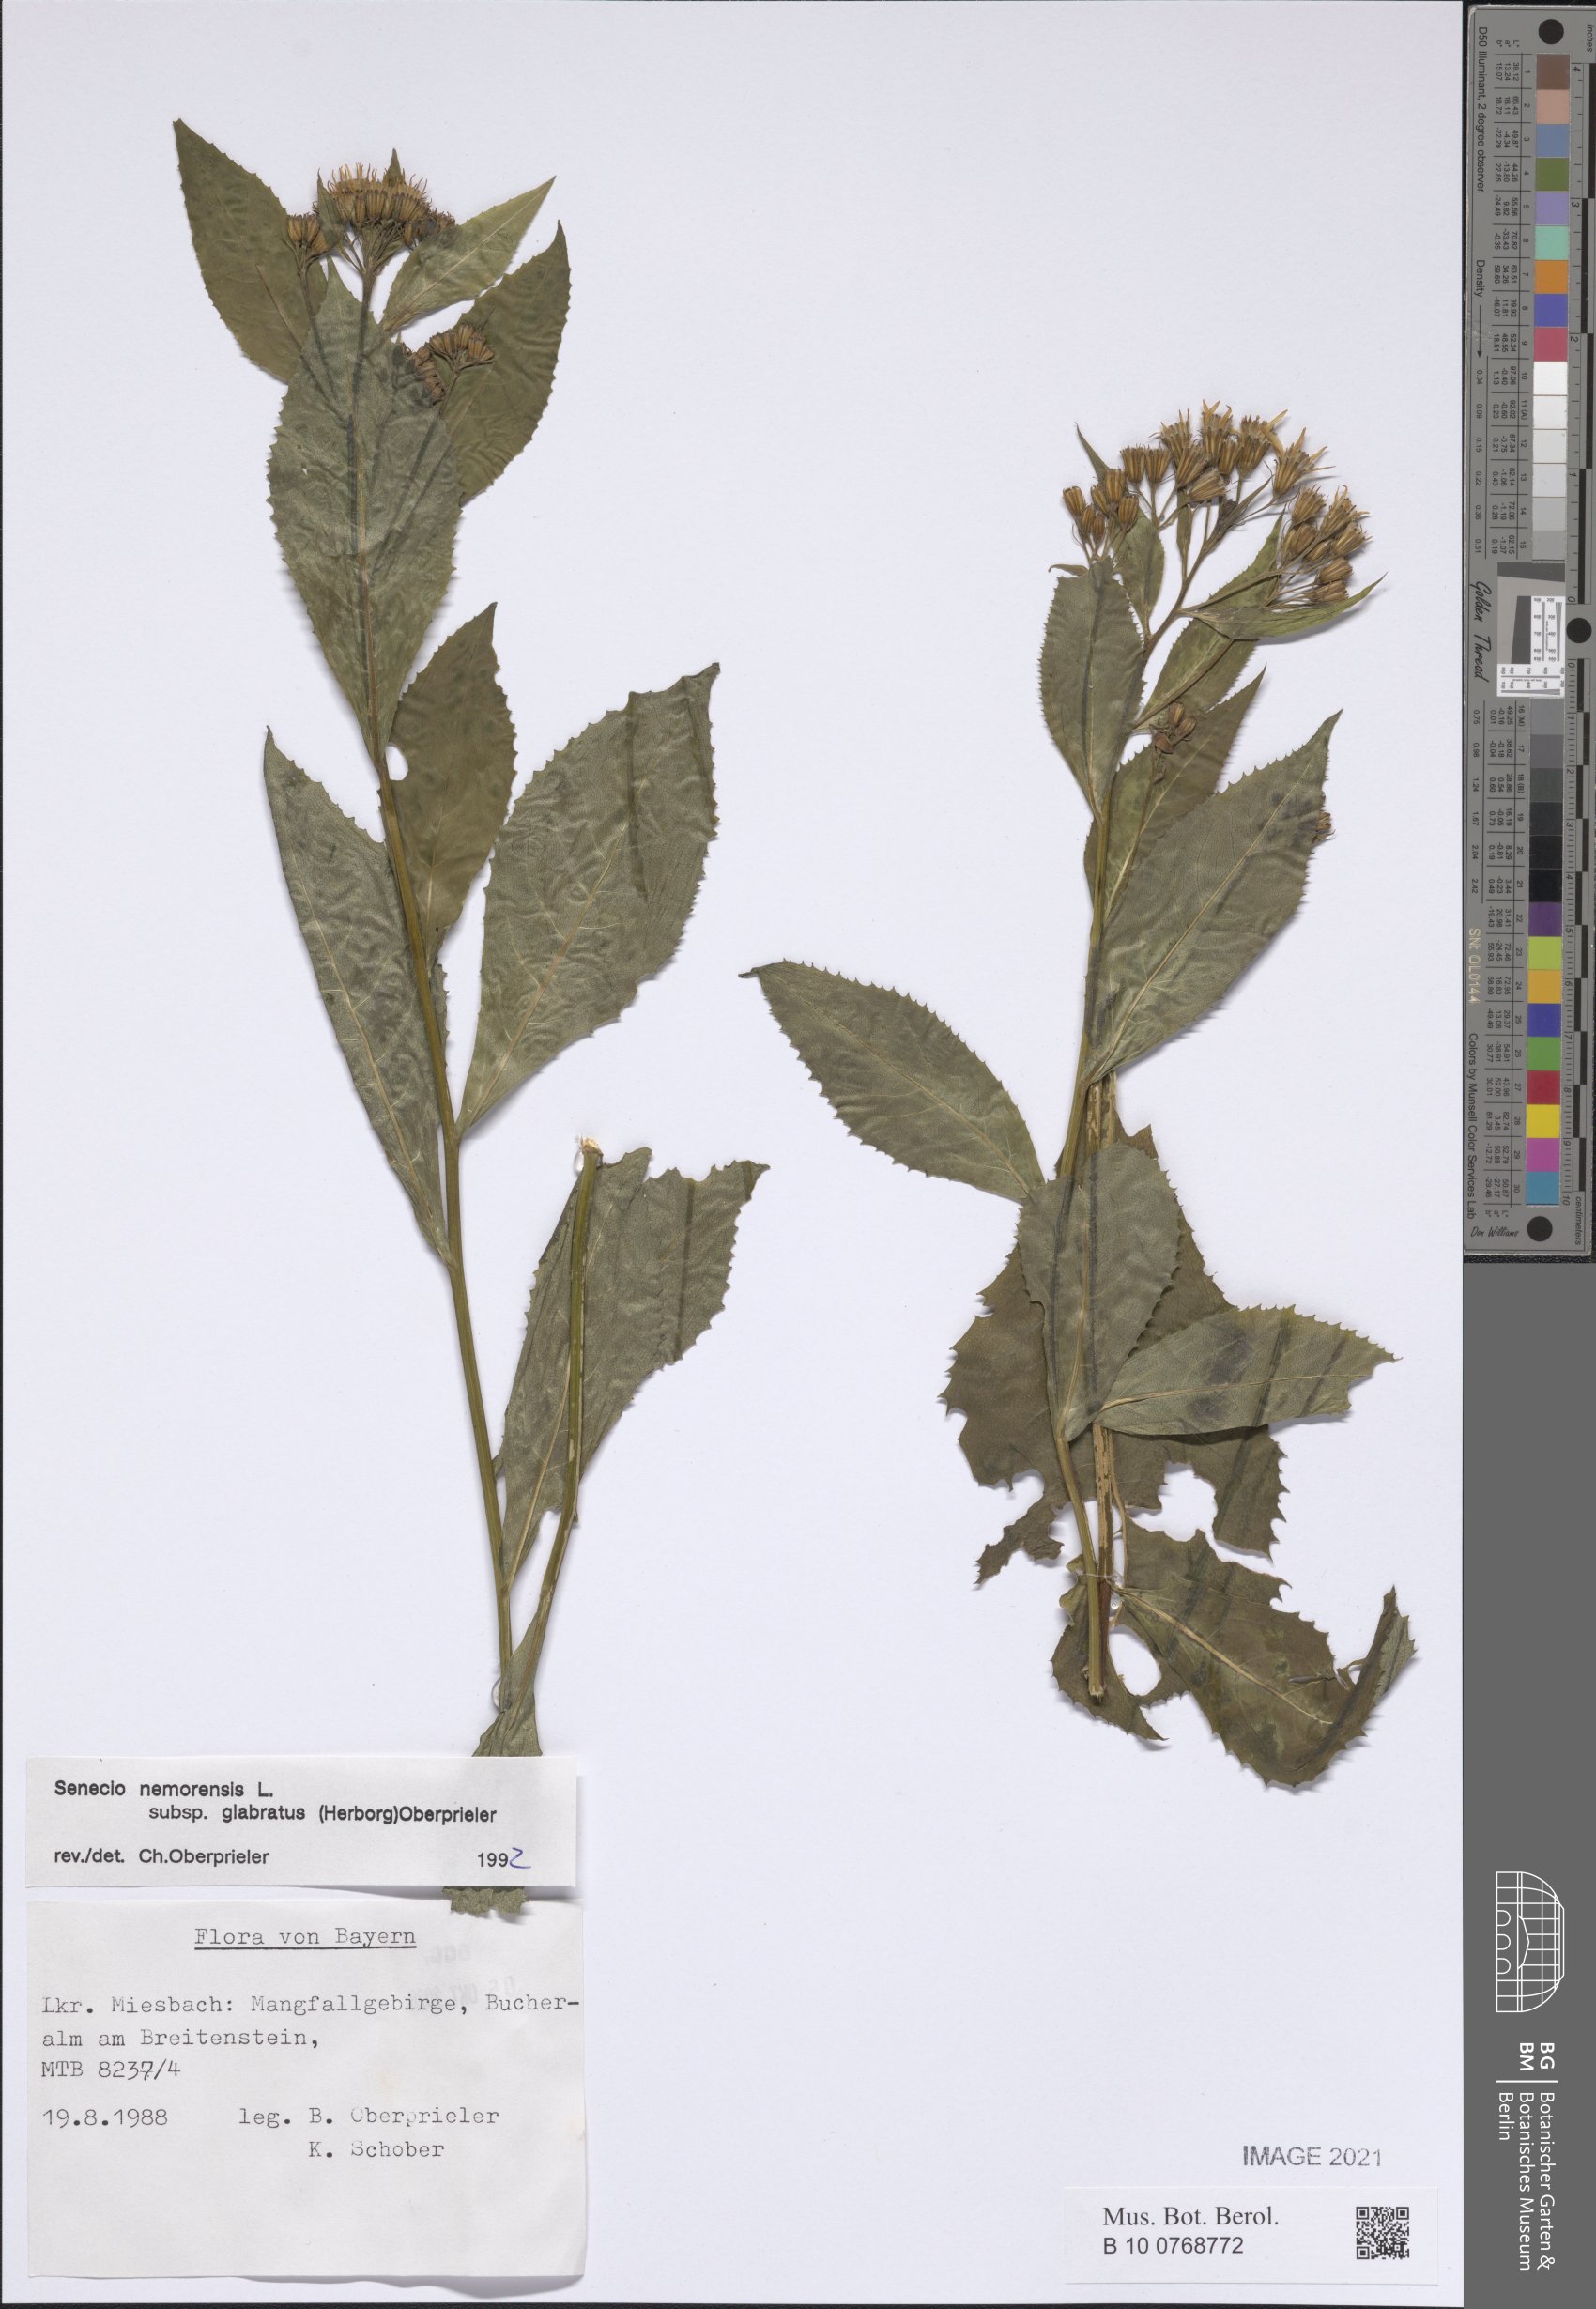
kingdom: Plantae
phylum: Tracheophyta
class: Magnoliopsida
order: Asterales
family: Asteraceae
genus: Senecio
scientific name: Senecio germanicus
